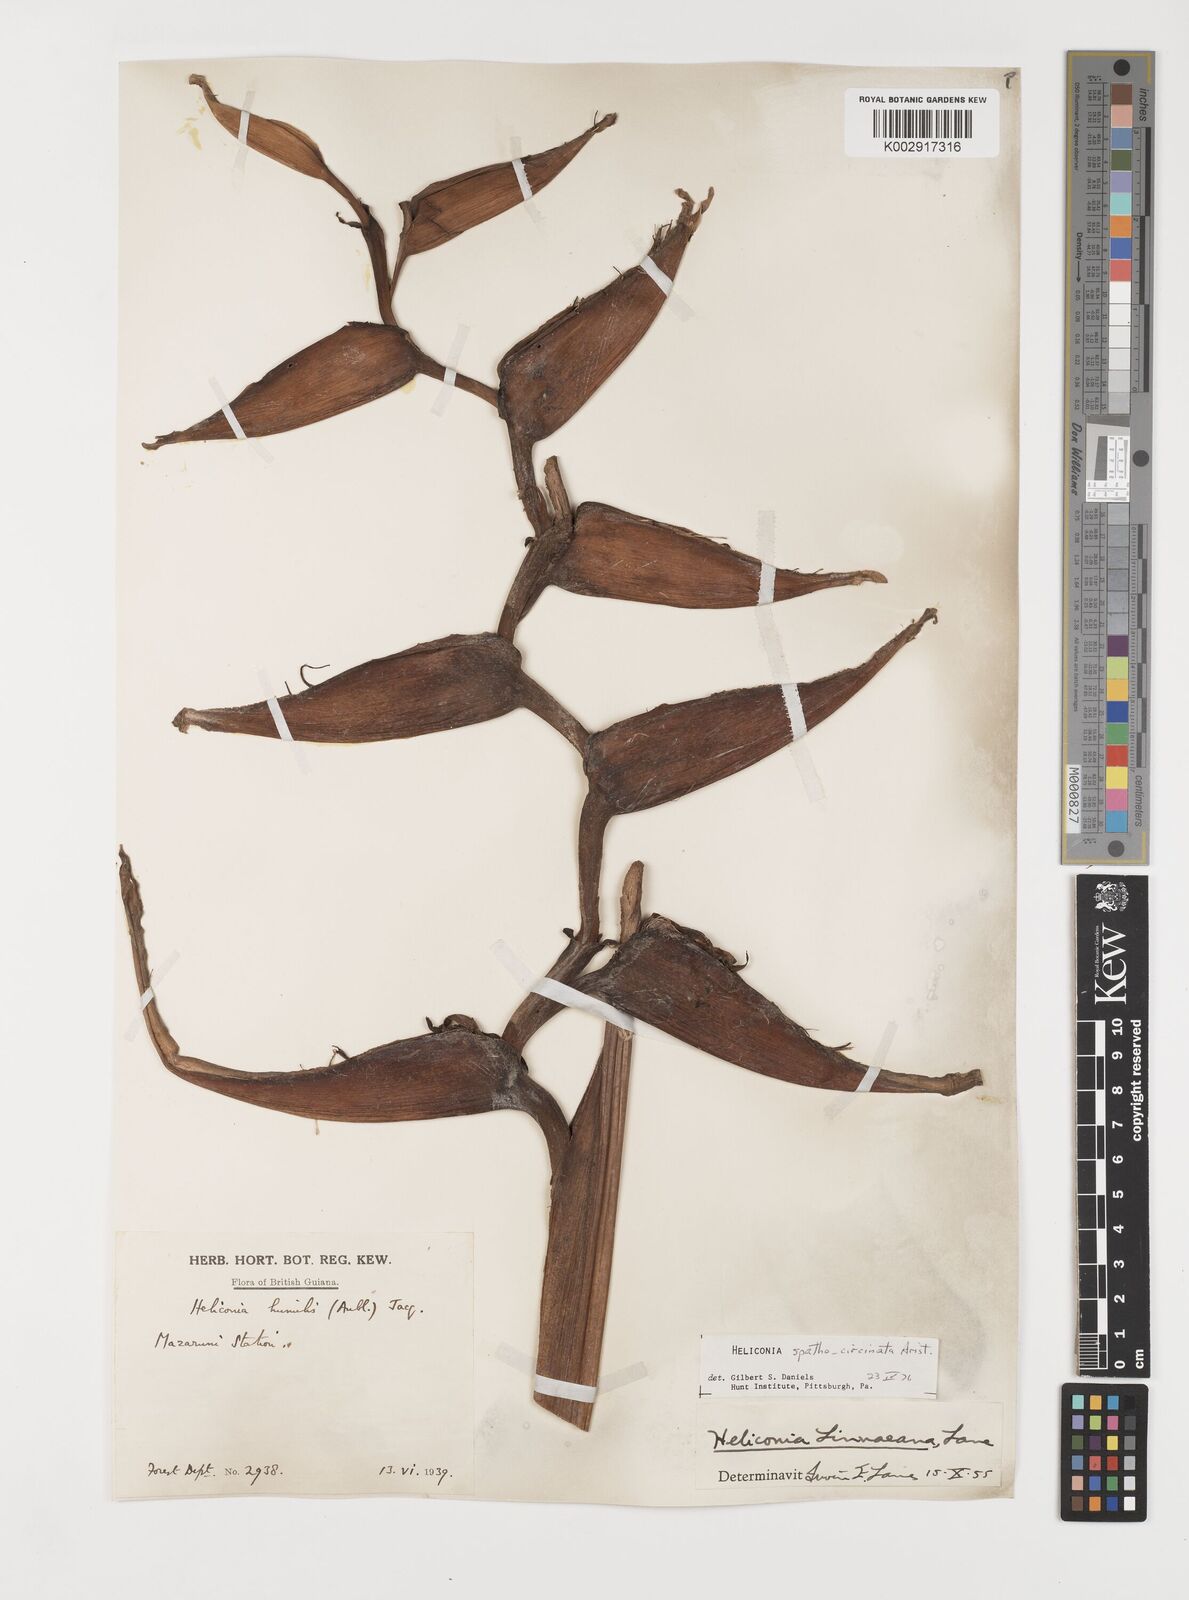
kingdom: Plantae
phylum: Tracheophyta
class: Liliopsida
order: Zingiberales
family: Heliconiaceae
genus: Heliconia
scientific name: Heliconia spathocircinata
